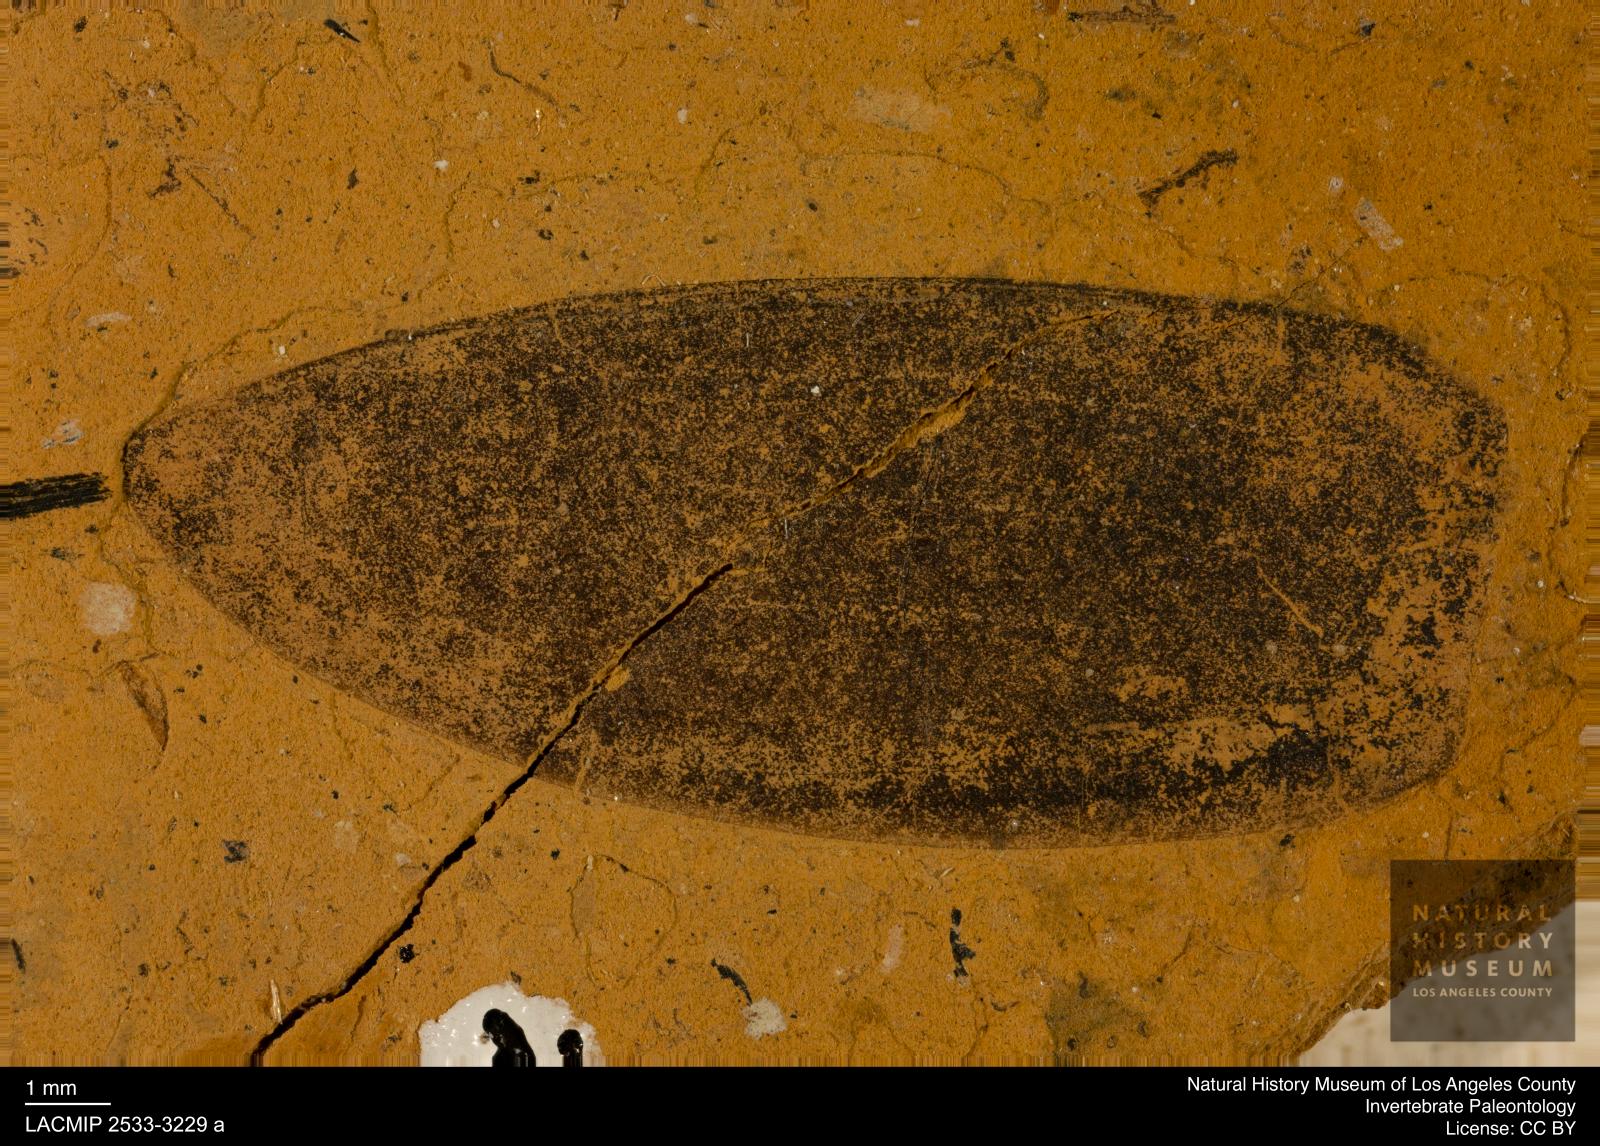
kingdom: Animalia
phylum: Arthropoda
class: Insecta
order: Coleoptera
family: Hydrophilidae
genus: Hydrobiomorpha
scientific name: Hydrobiomorpha fraterna
